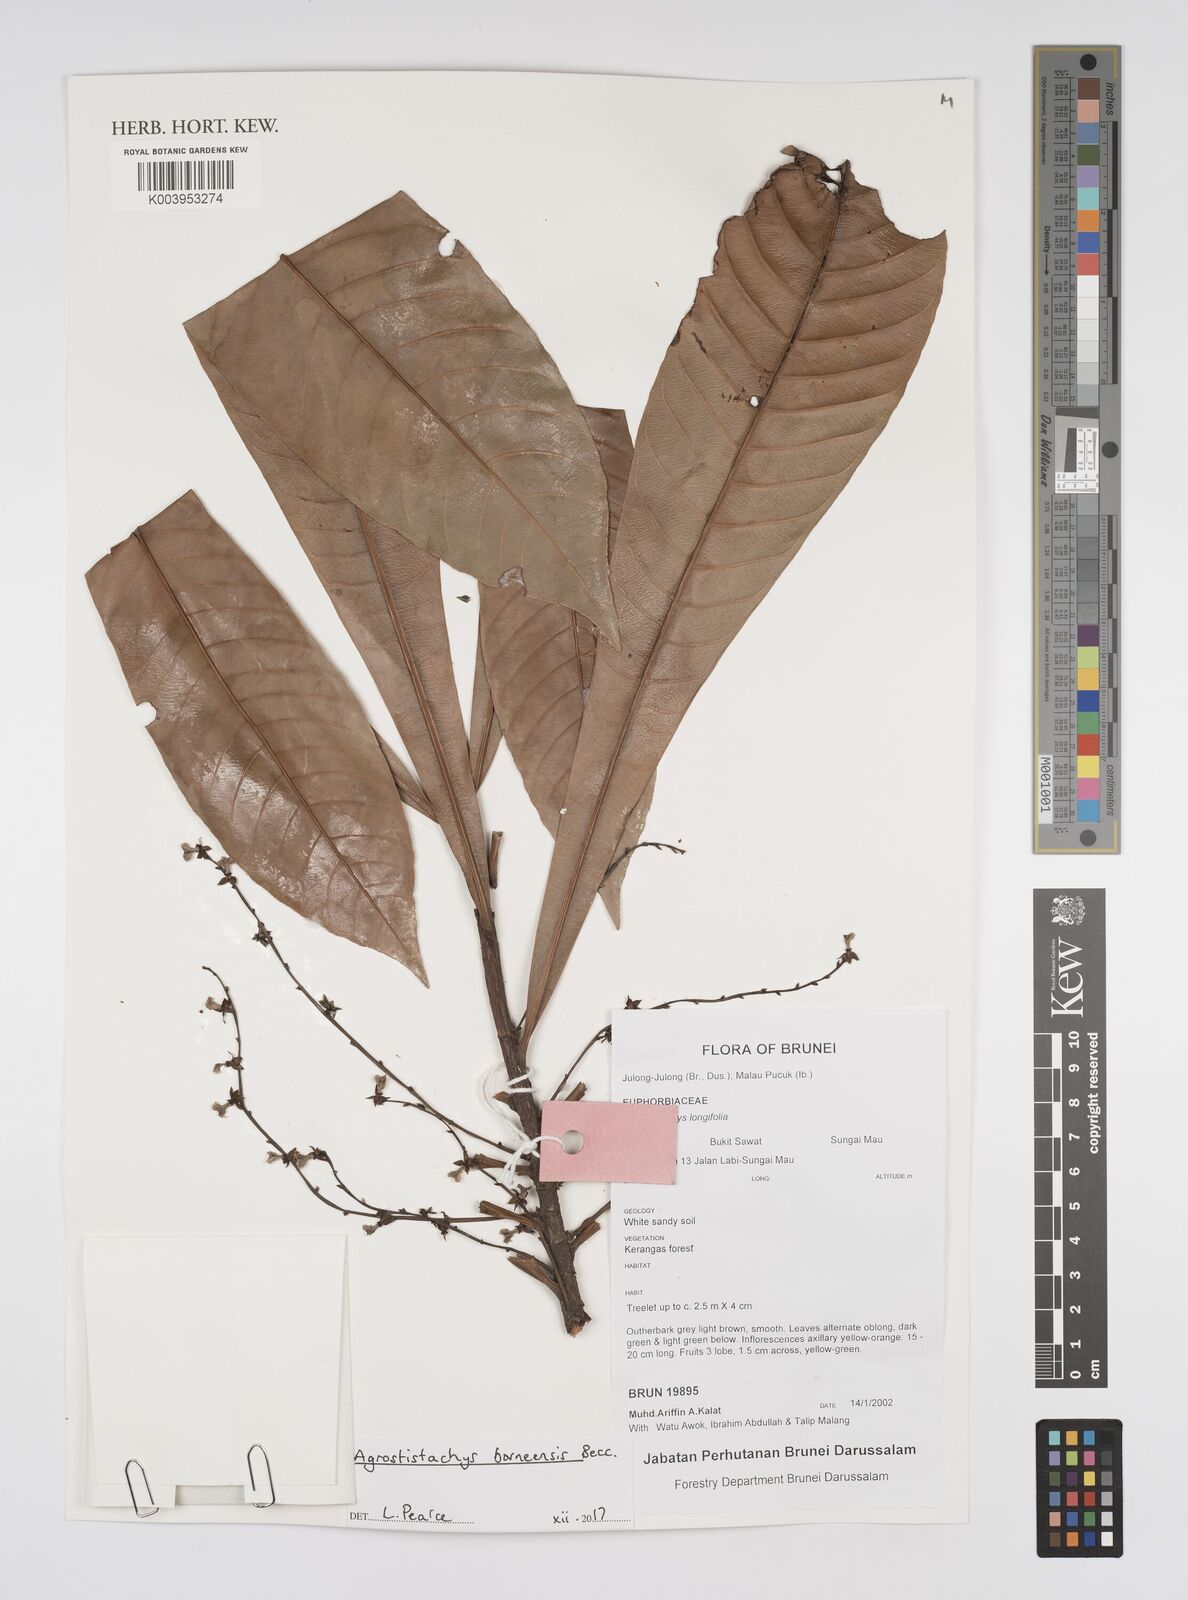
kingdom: Plantae
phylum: Tracheophyta
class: Magnoliopsida
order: Malpighiales
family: Euphorbiaceae
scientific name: Euphorbiaceae
